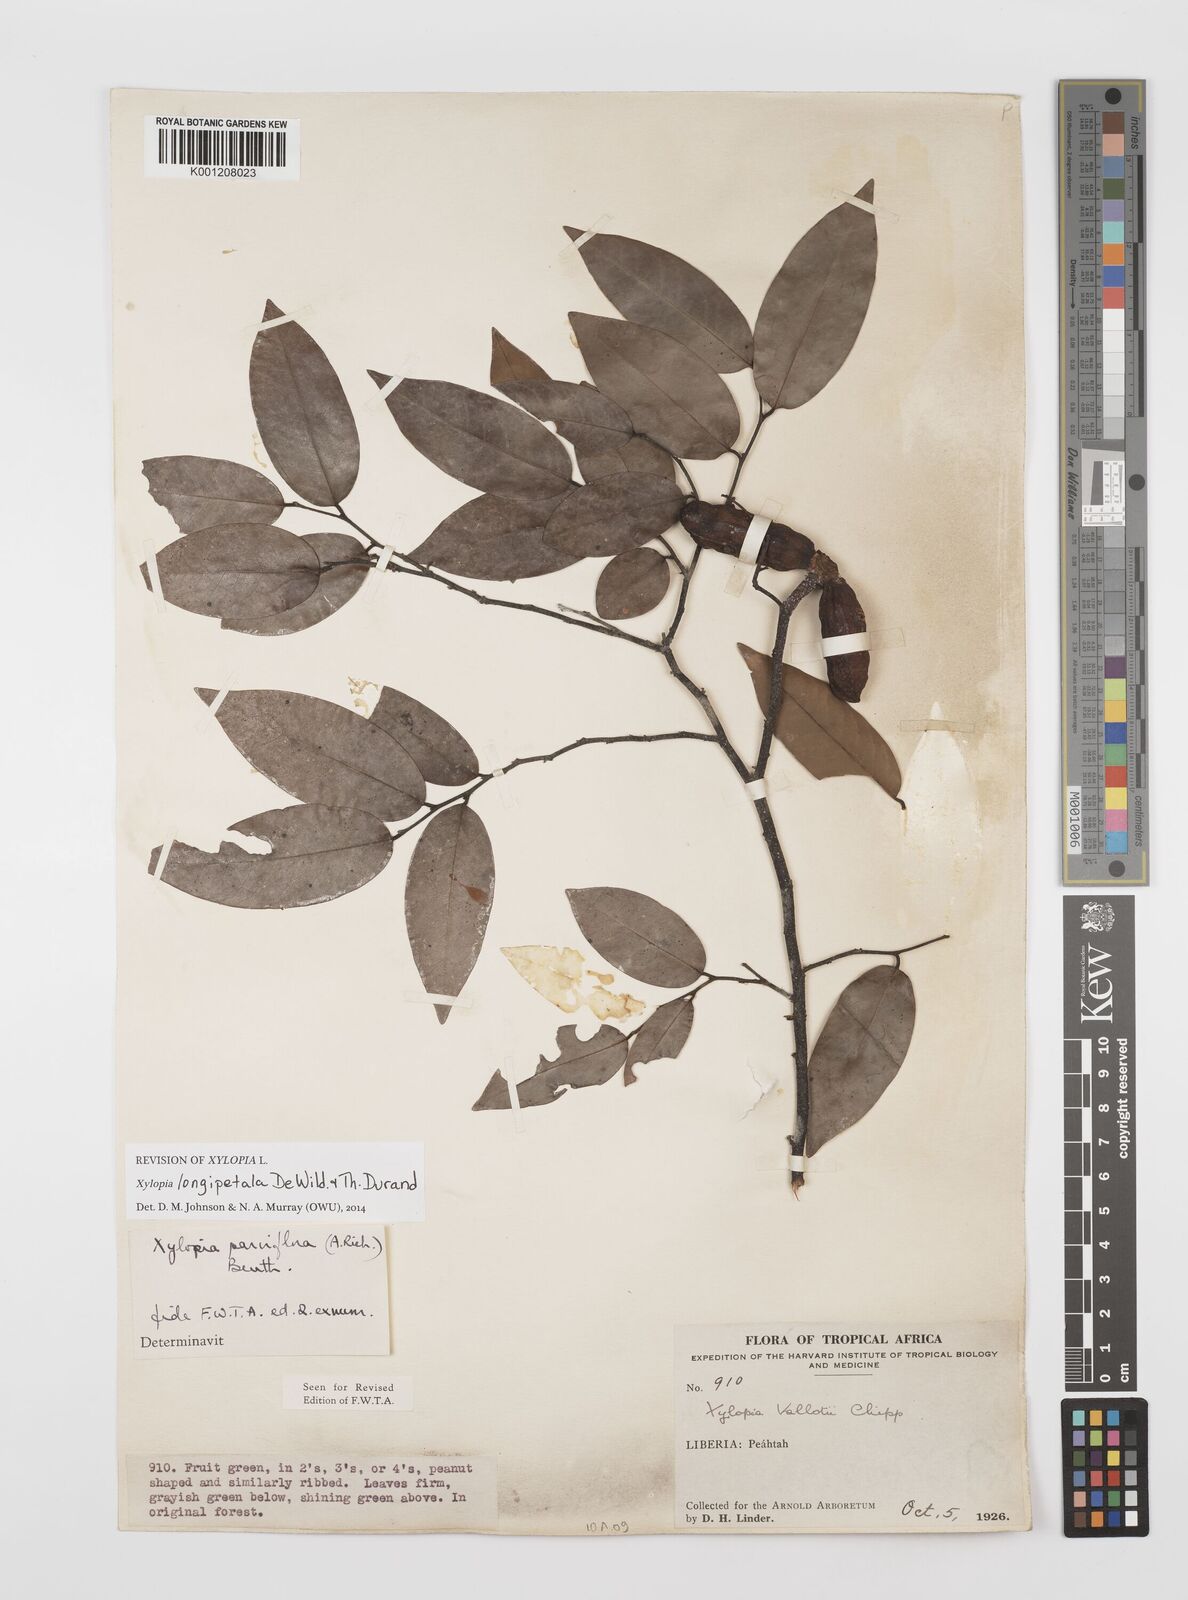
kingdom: Plantae
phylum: Tracheophyta
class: Magnoliopsida
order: Magnoliales
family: Annonaceae
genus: Xylopia
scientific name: Xylopia parviflora
